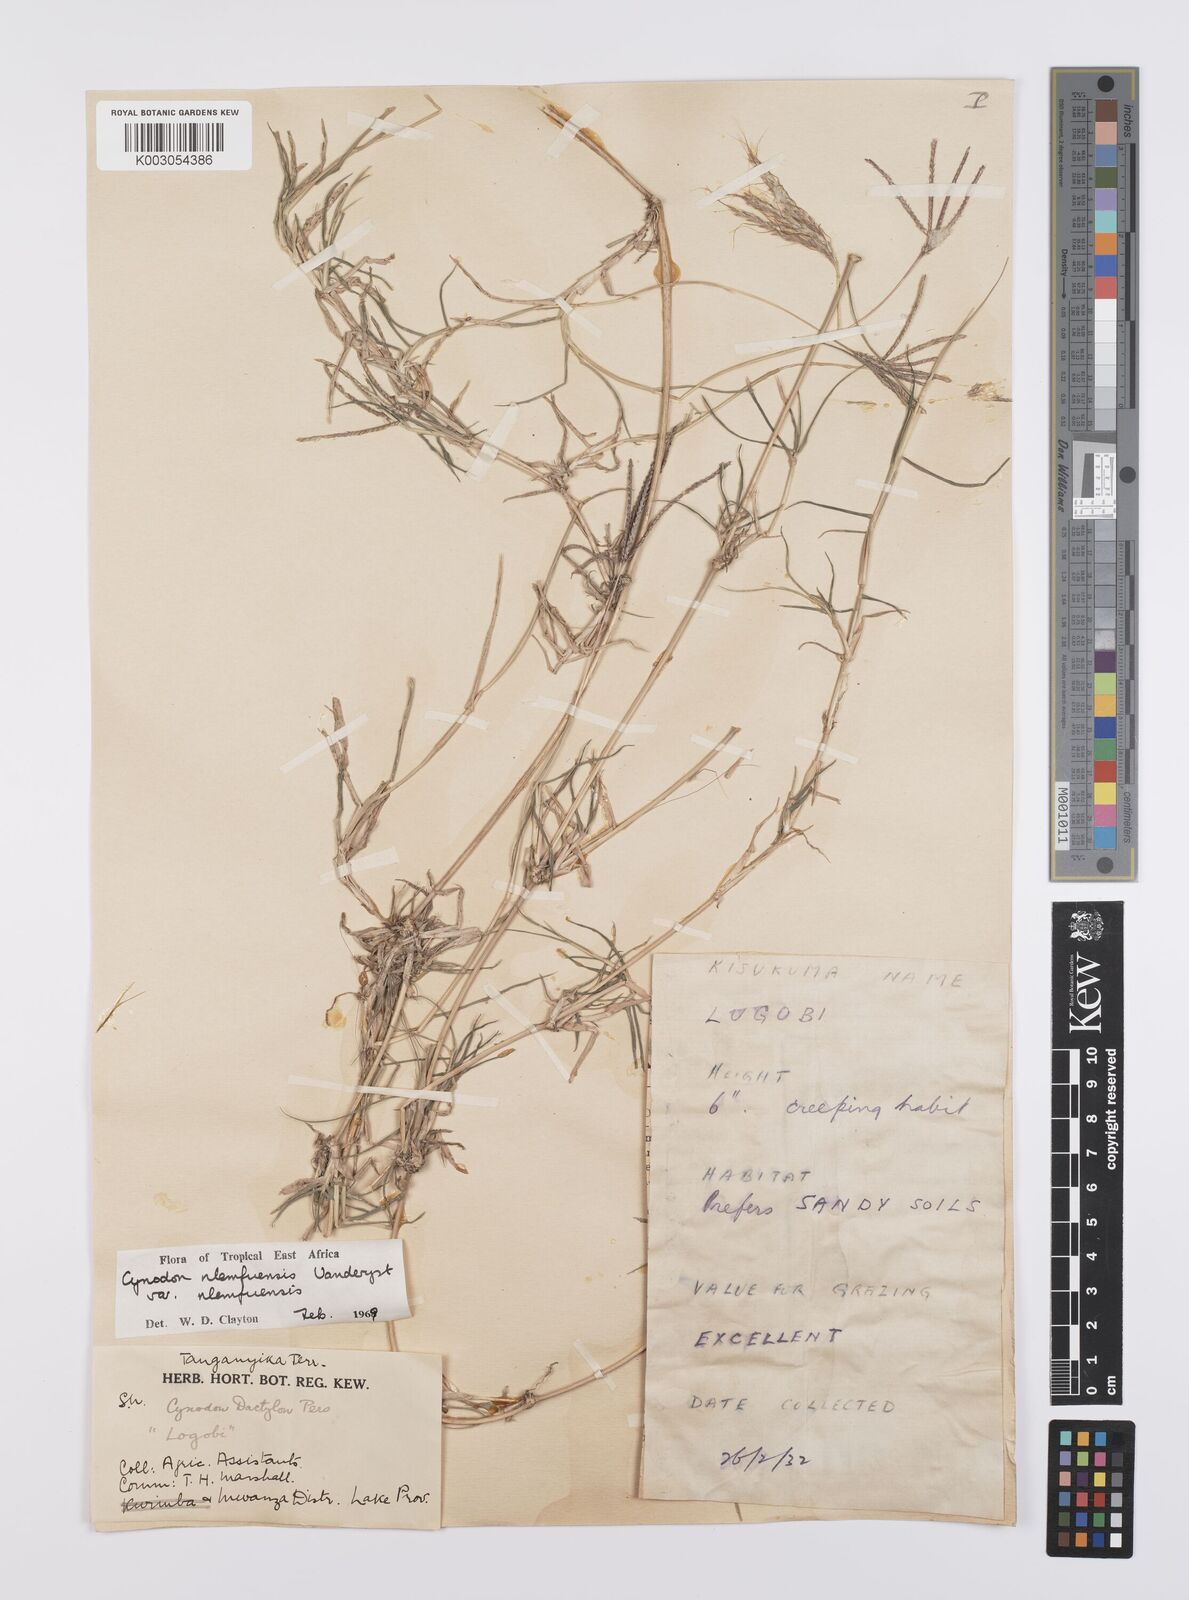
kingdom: Plantae
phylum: Tracheophyta
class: Liliopsida
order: Poales
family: Poaceae
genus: Cynodon
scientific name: Cynodon nlemfuensis
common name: African bermudagrass
